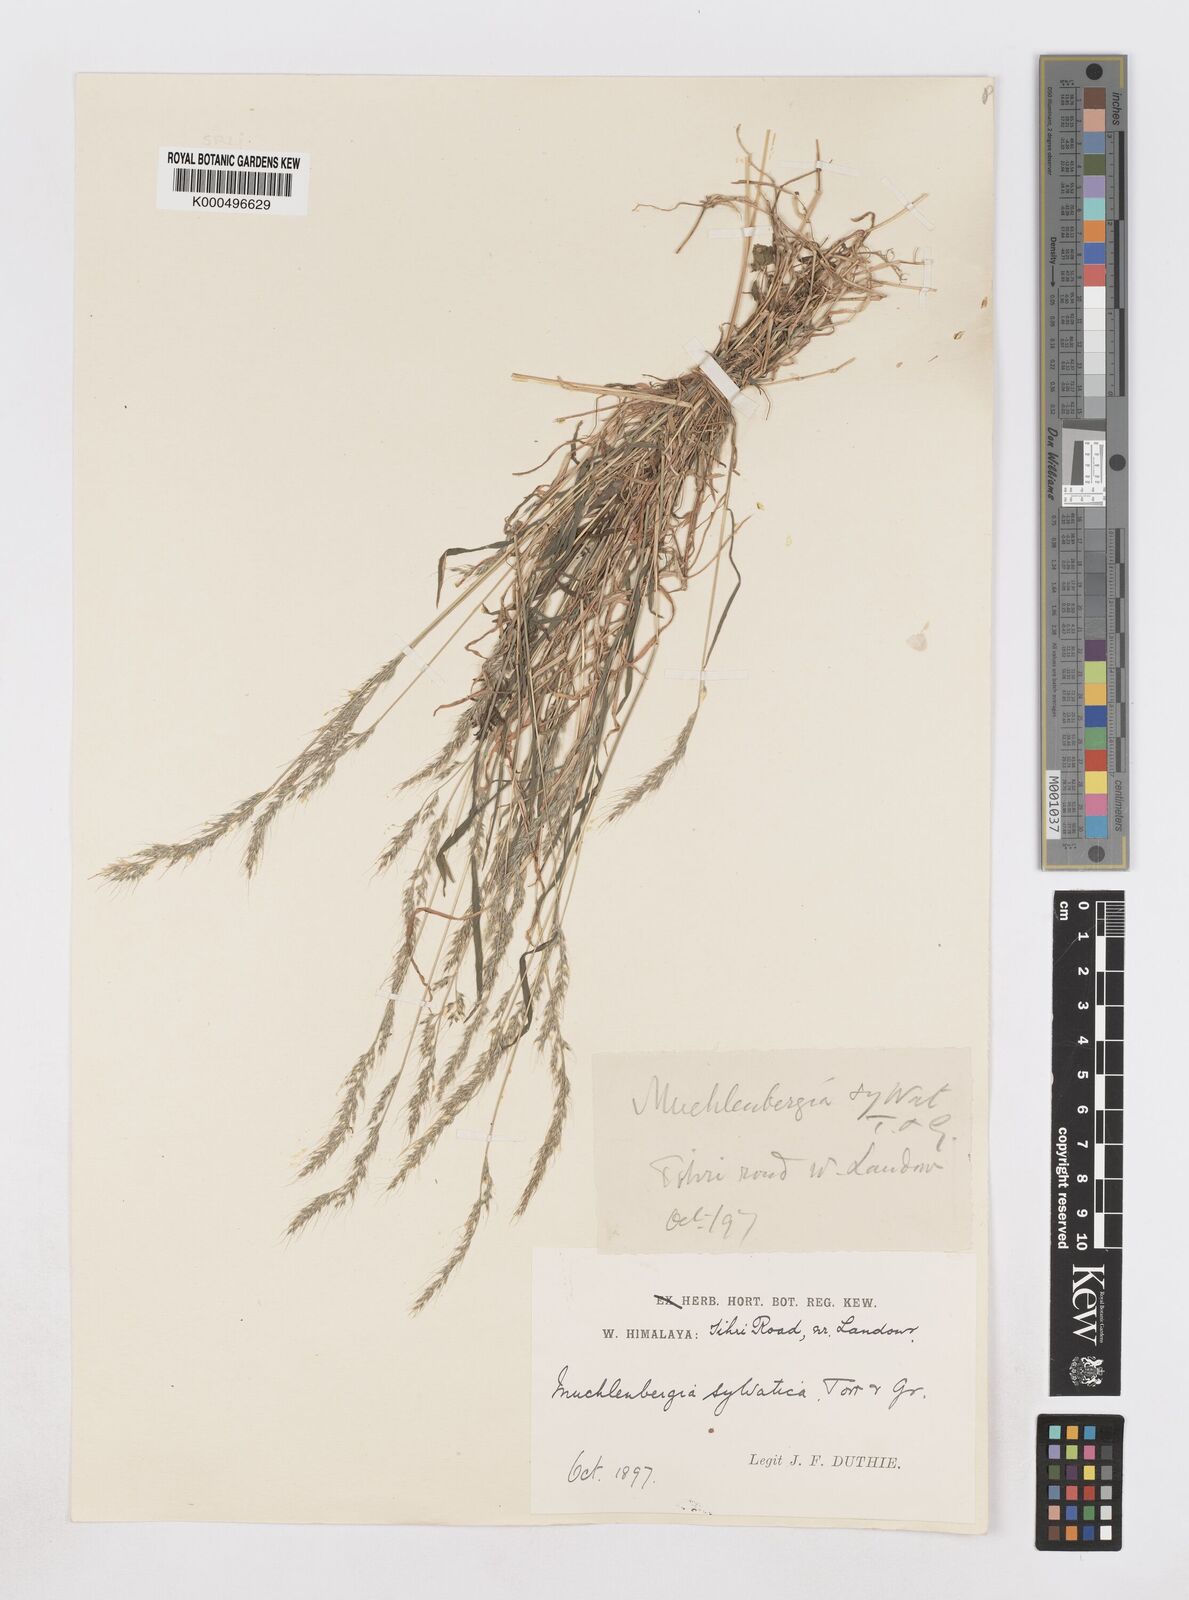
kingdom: Plantae
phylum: Tracheophyta
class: Liliopsida
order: Poales
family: Poaceae
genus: Muhlenbergia
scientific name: Muhlenbergia duthieana
